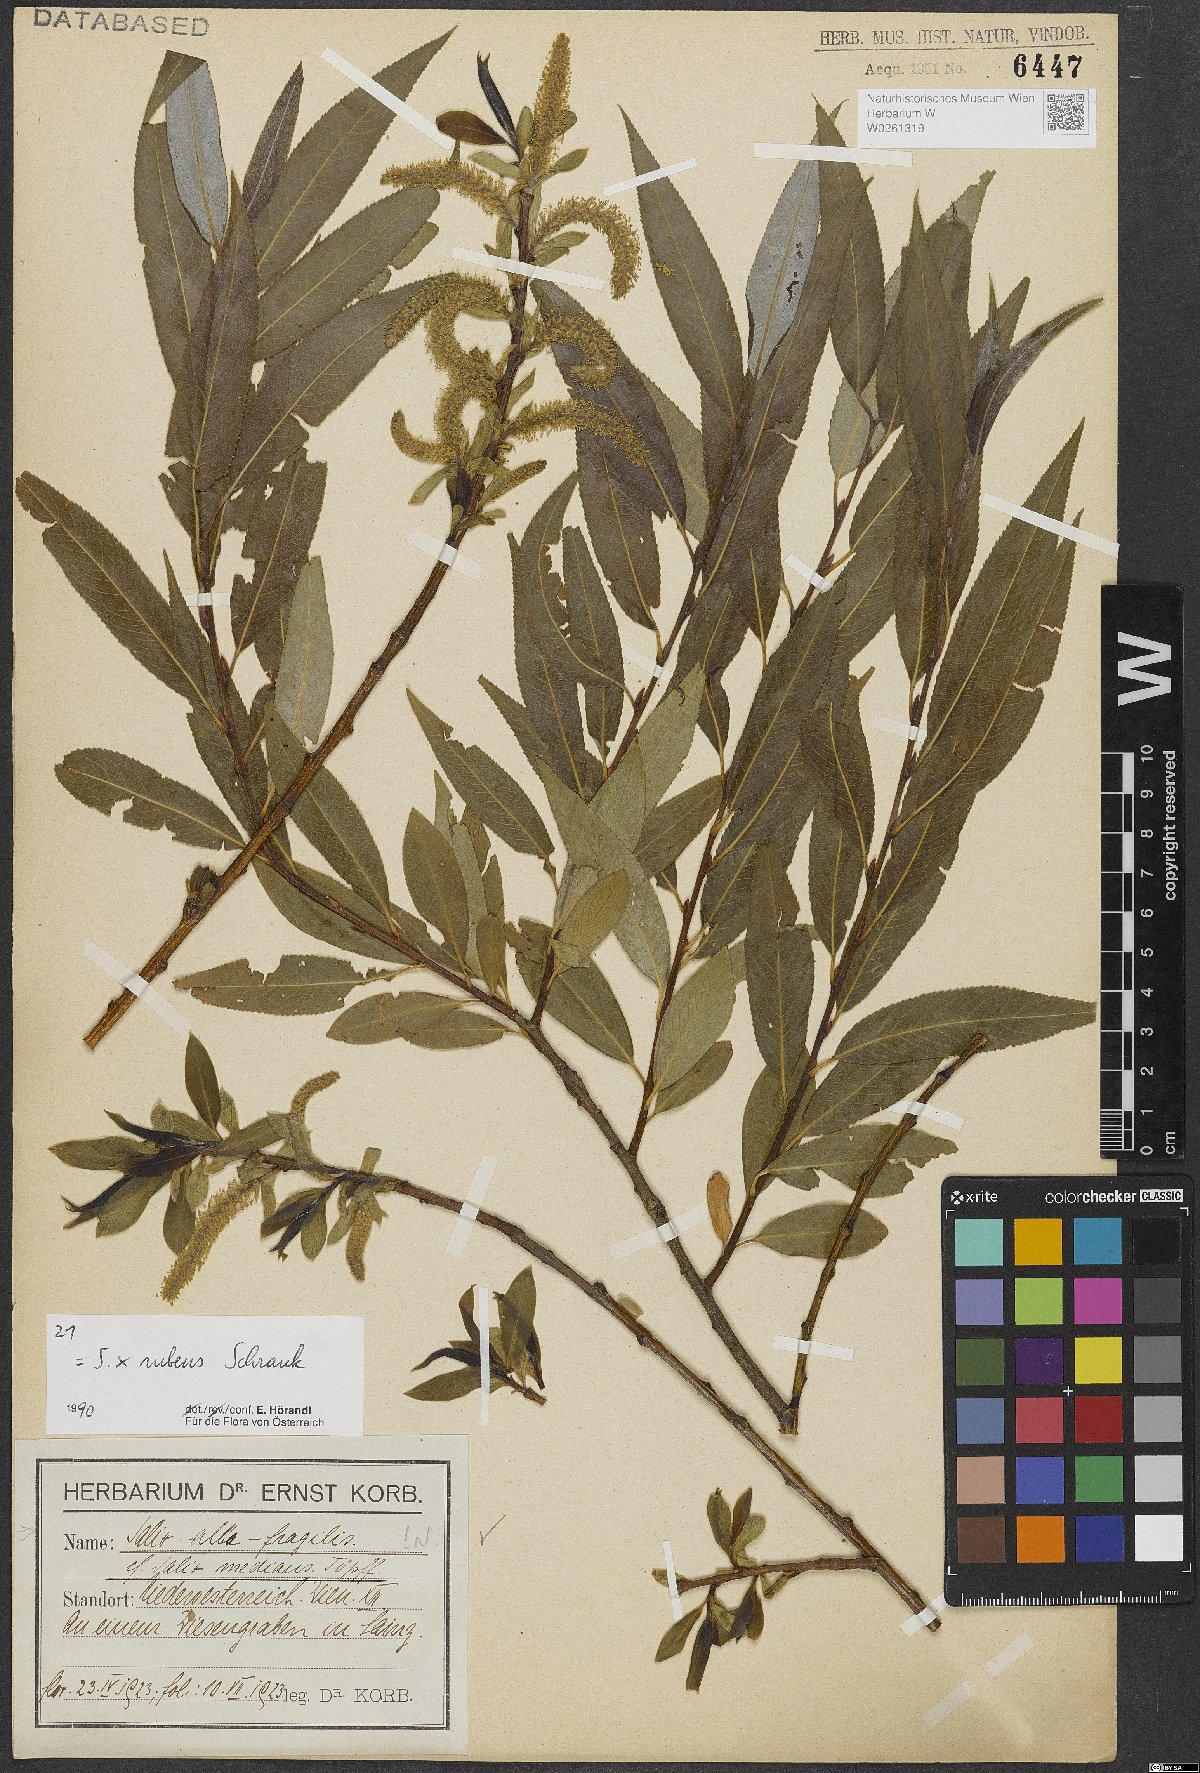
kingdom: Plantae
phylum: Tracheophyta
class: Magnoliopsida
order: Malpighiales
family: Salicaceae
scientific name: Salicaceae
